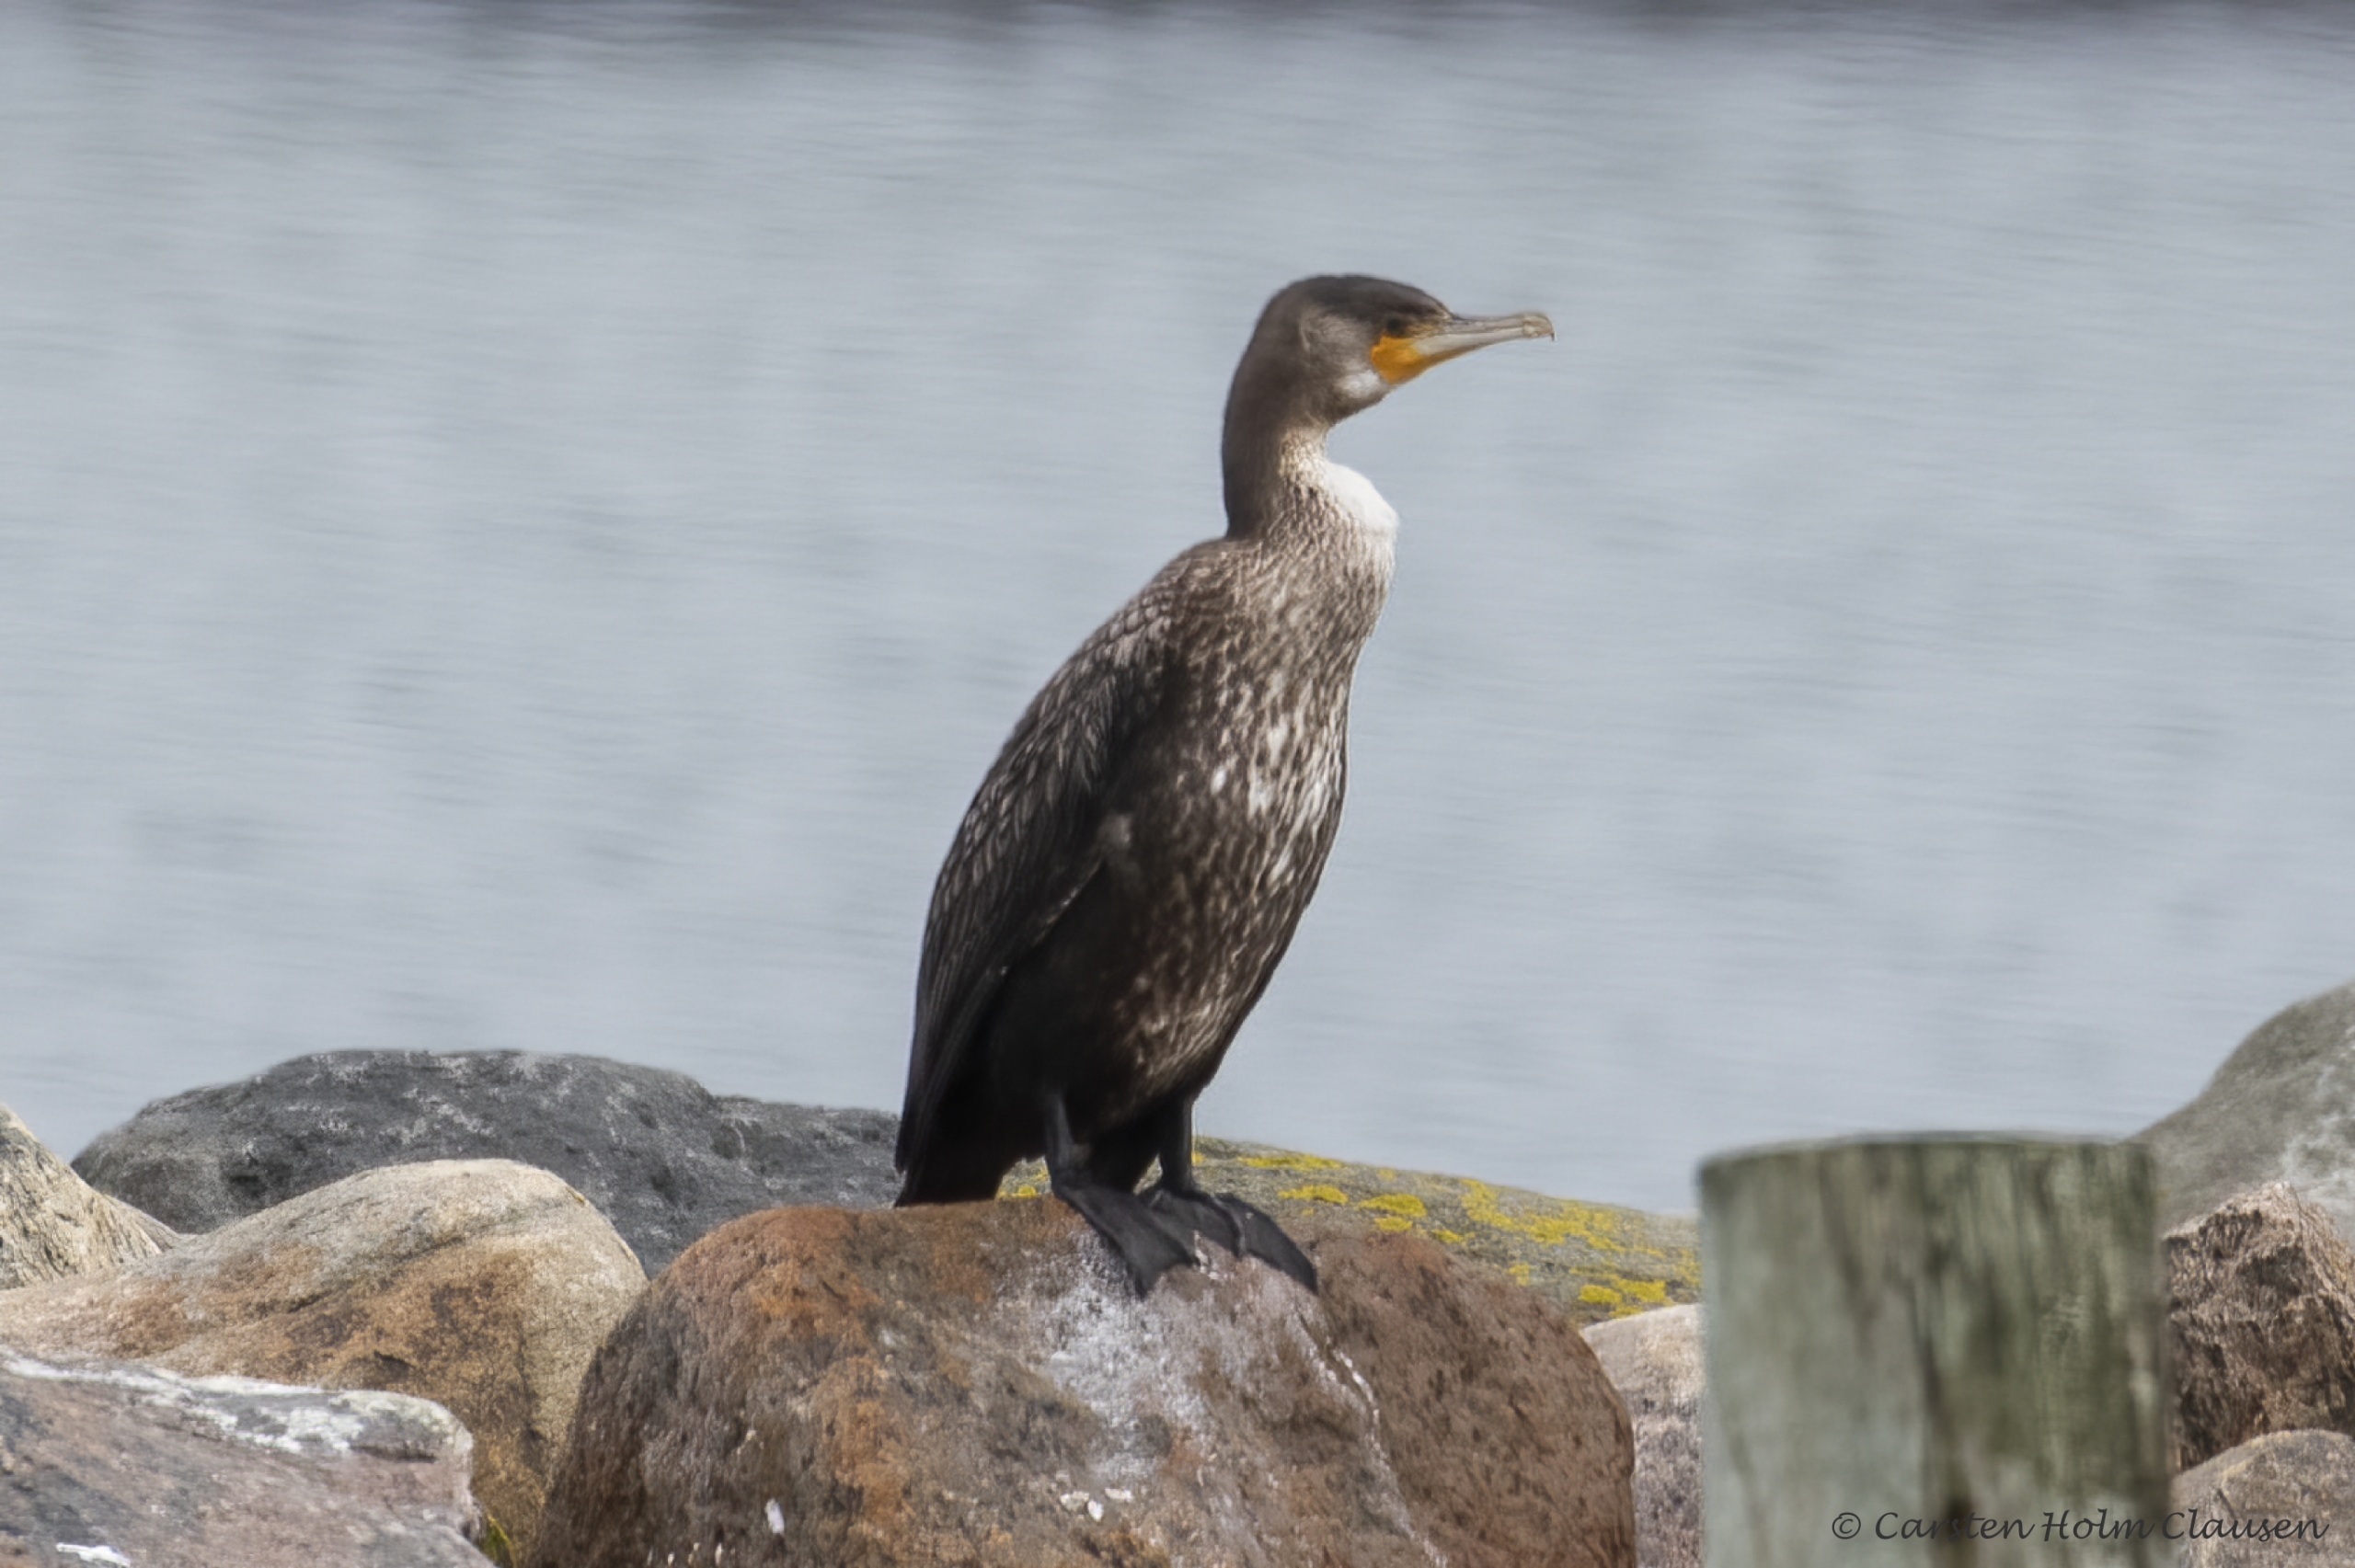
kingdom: Animalia
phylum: Chordata
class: Aves
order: Suliformes
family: Phalacrocoracidae
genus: Phalacrocorax
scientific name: Phalacrocorax carbo
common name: Skarv
